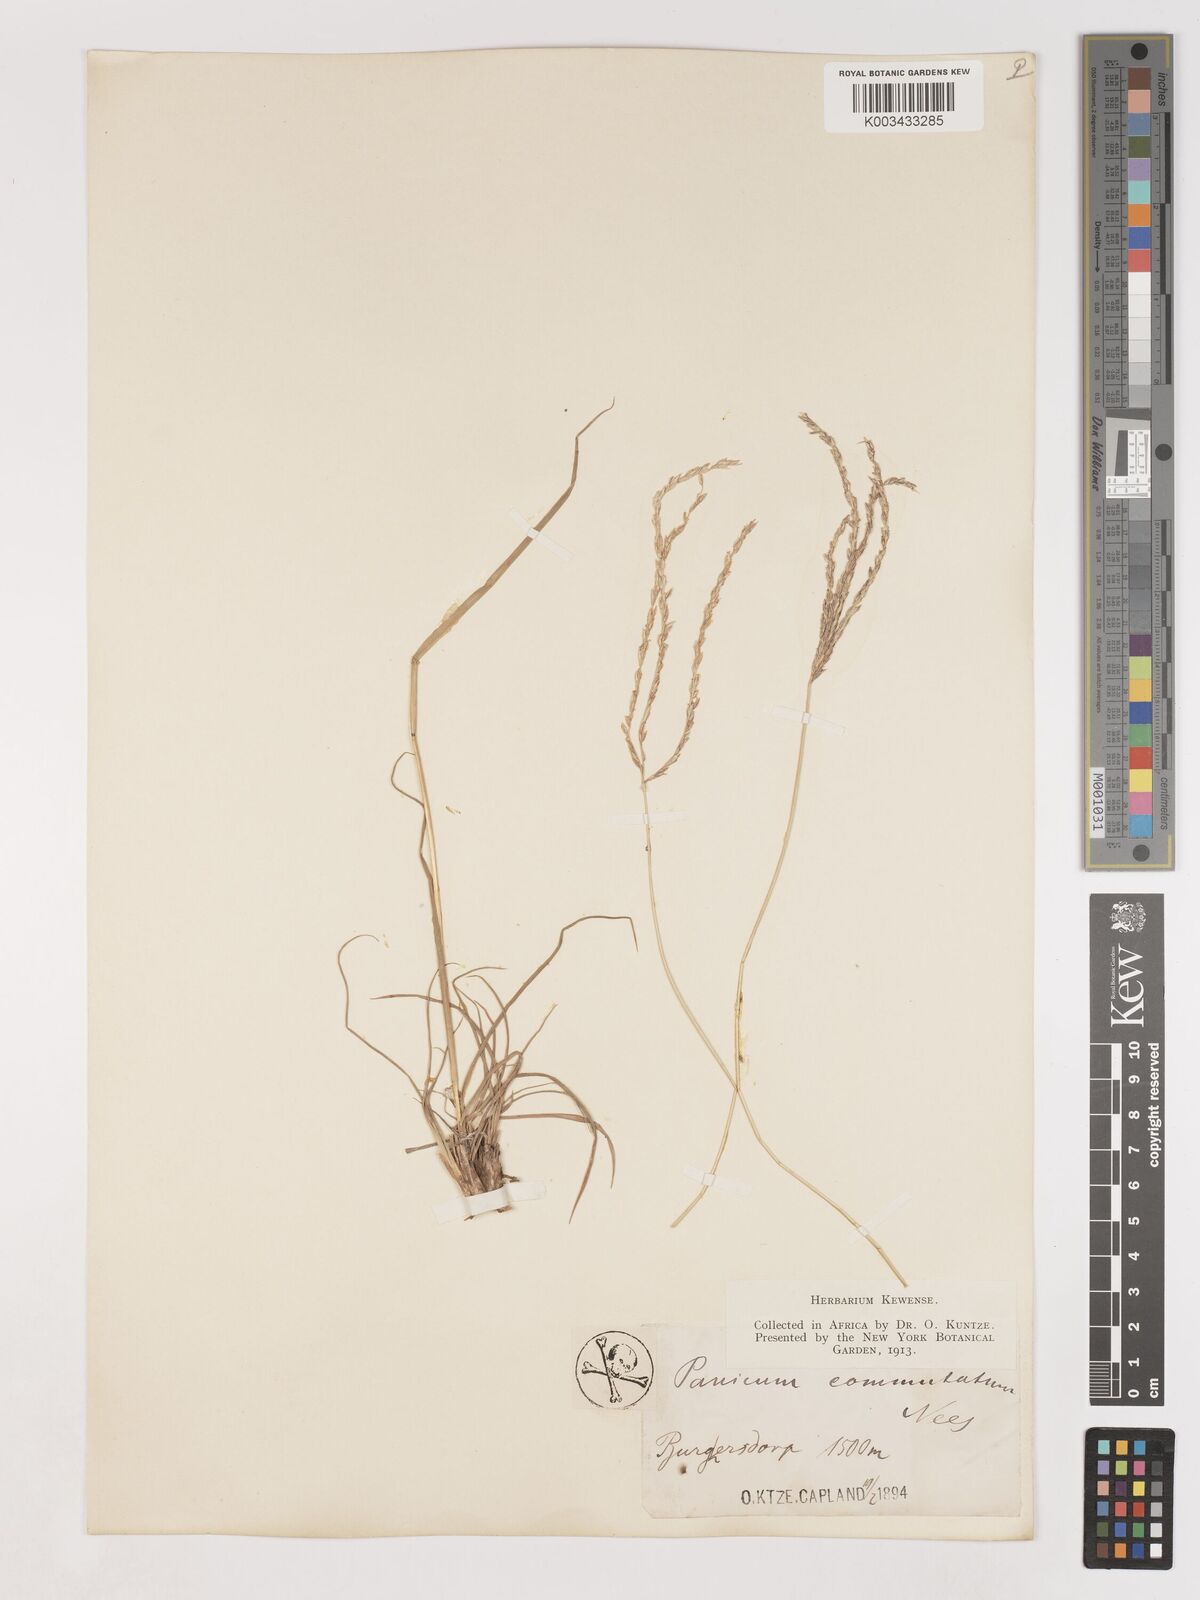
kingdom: Plantae
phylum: Tracheophyta
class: Liliopsida
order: Poales
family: Poaceae
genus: Digitaria
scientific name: Digitaria eriantha
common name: Digitgrass
